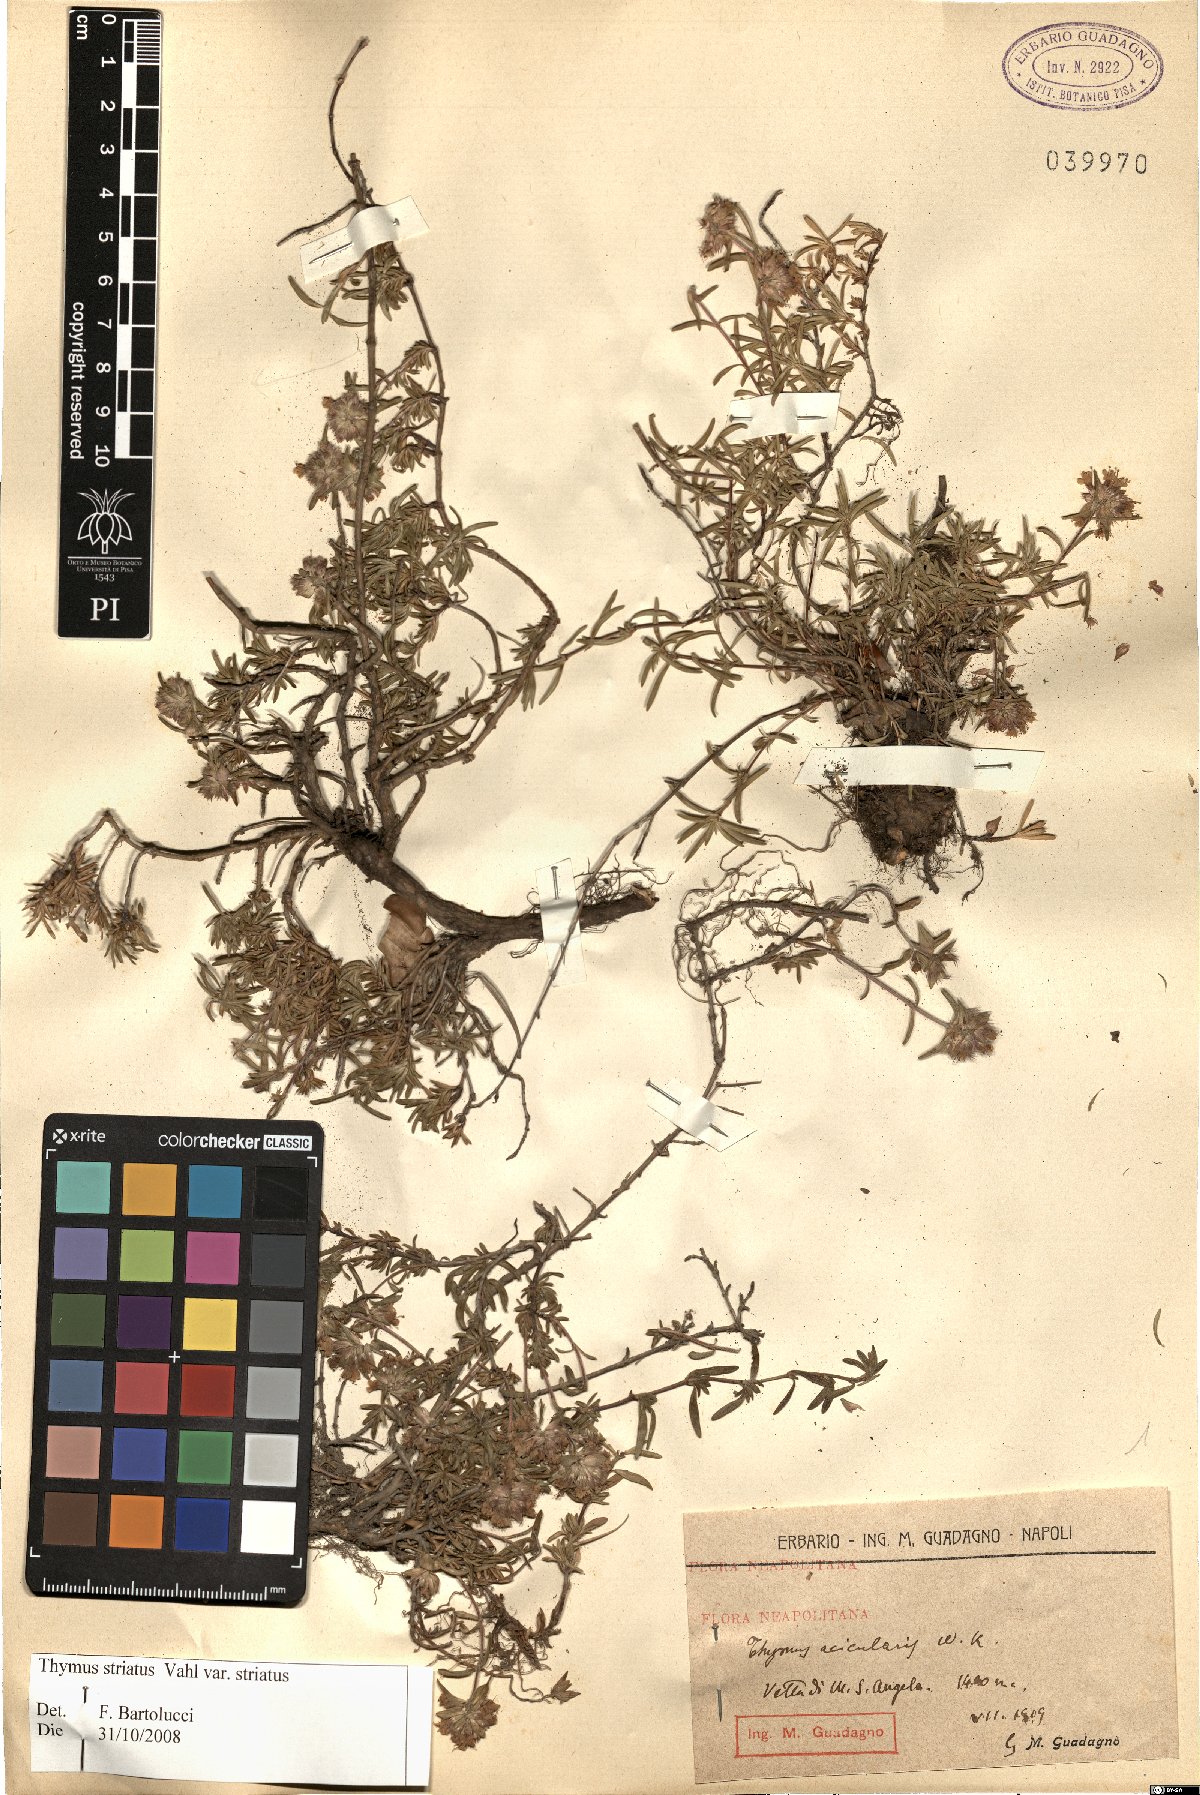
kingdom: Plantae
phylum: Tracheophyta
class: Magnoliopsida
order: Lamiales
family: Lamiaceae
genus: Thymus
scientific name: Thymus striatus
